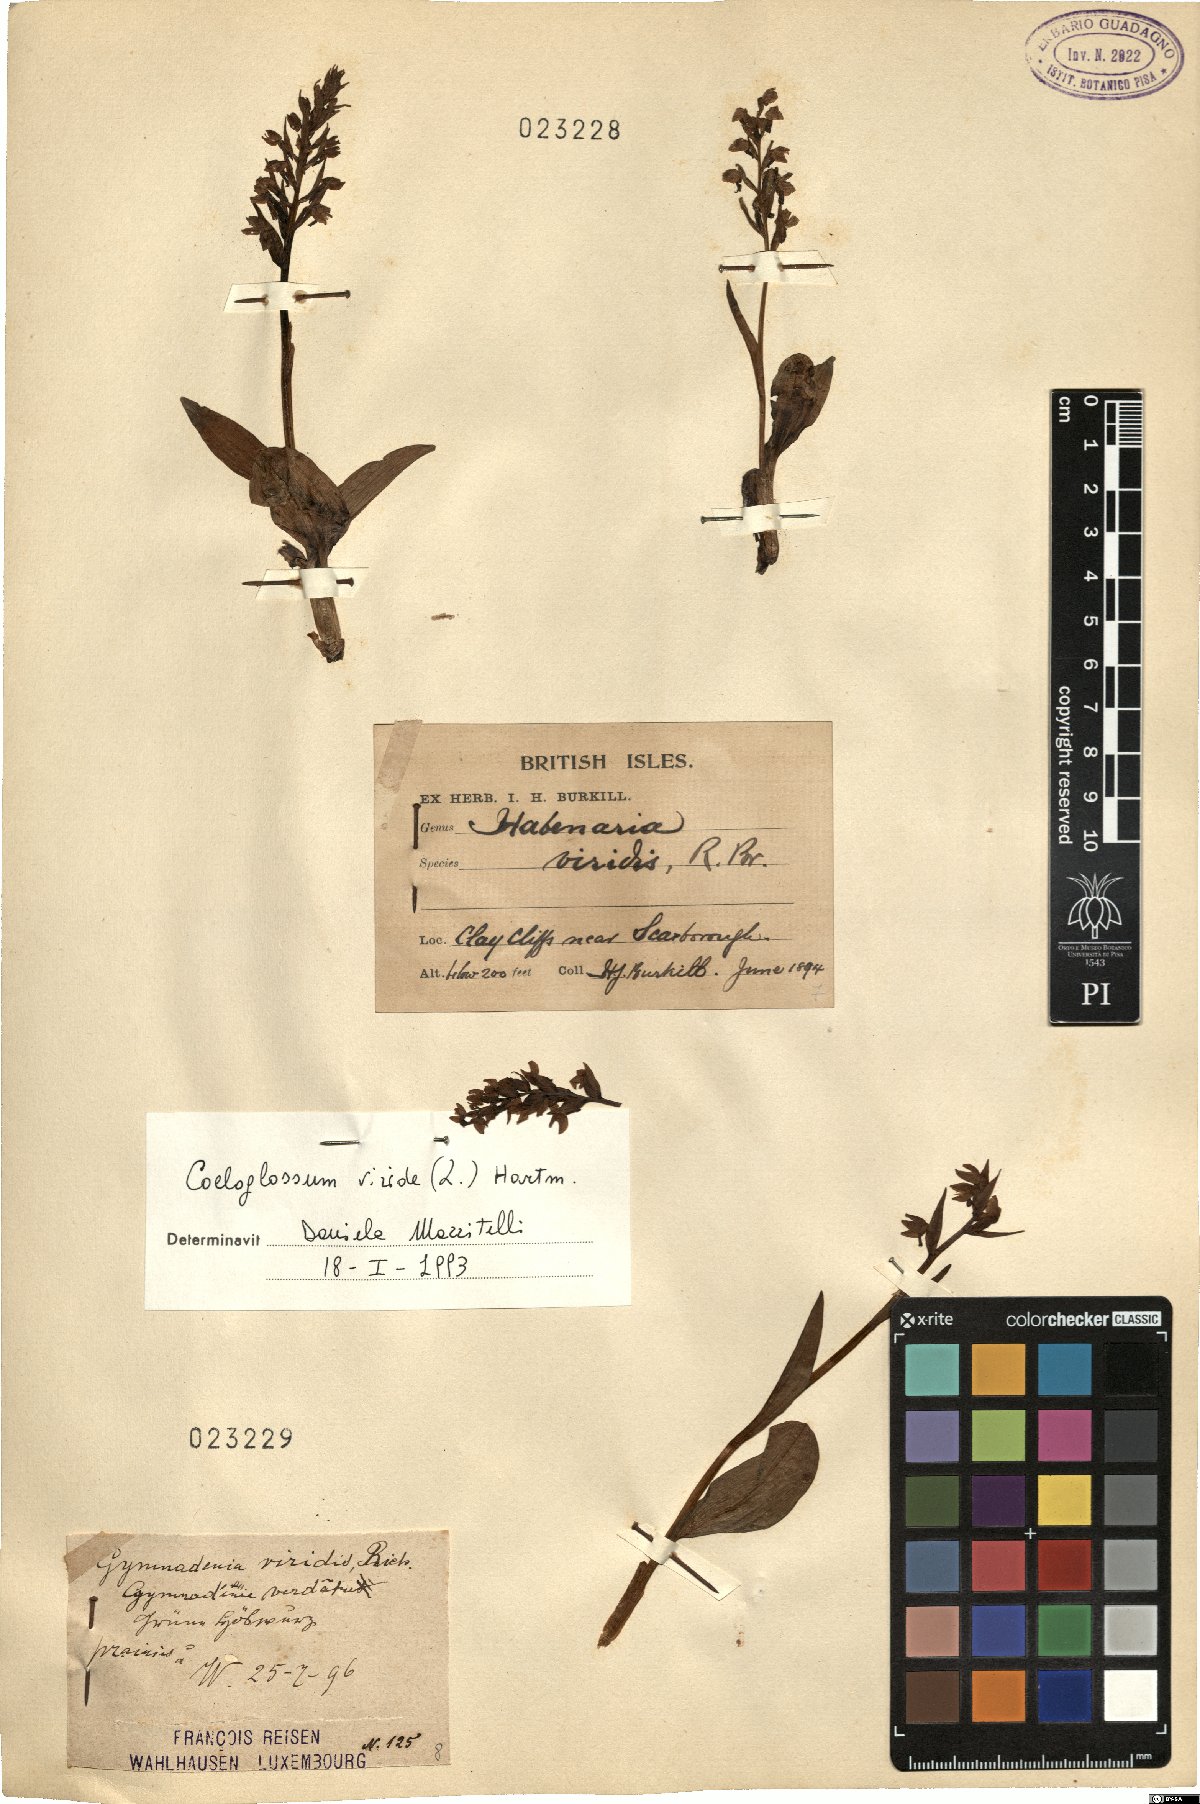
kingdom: Plantae
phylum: Tracheophyta
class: Liliopsida
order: Asparagales
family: Orchidaceae
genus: Dactylorhiza
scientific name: Dactylorhiza viridis
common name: Longbract frog orchid
